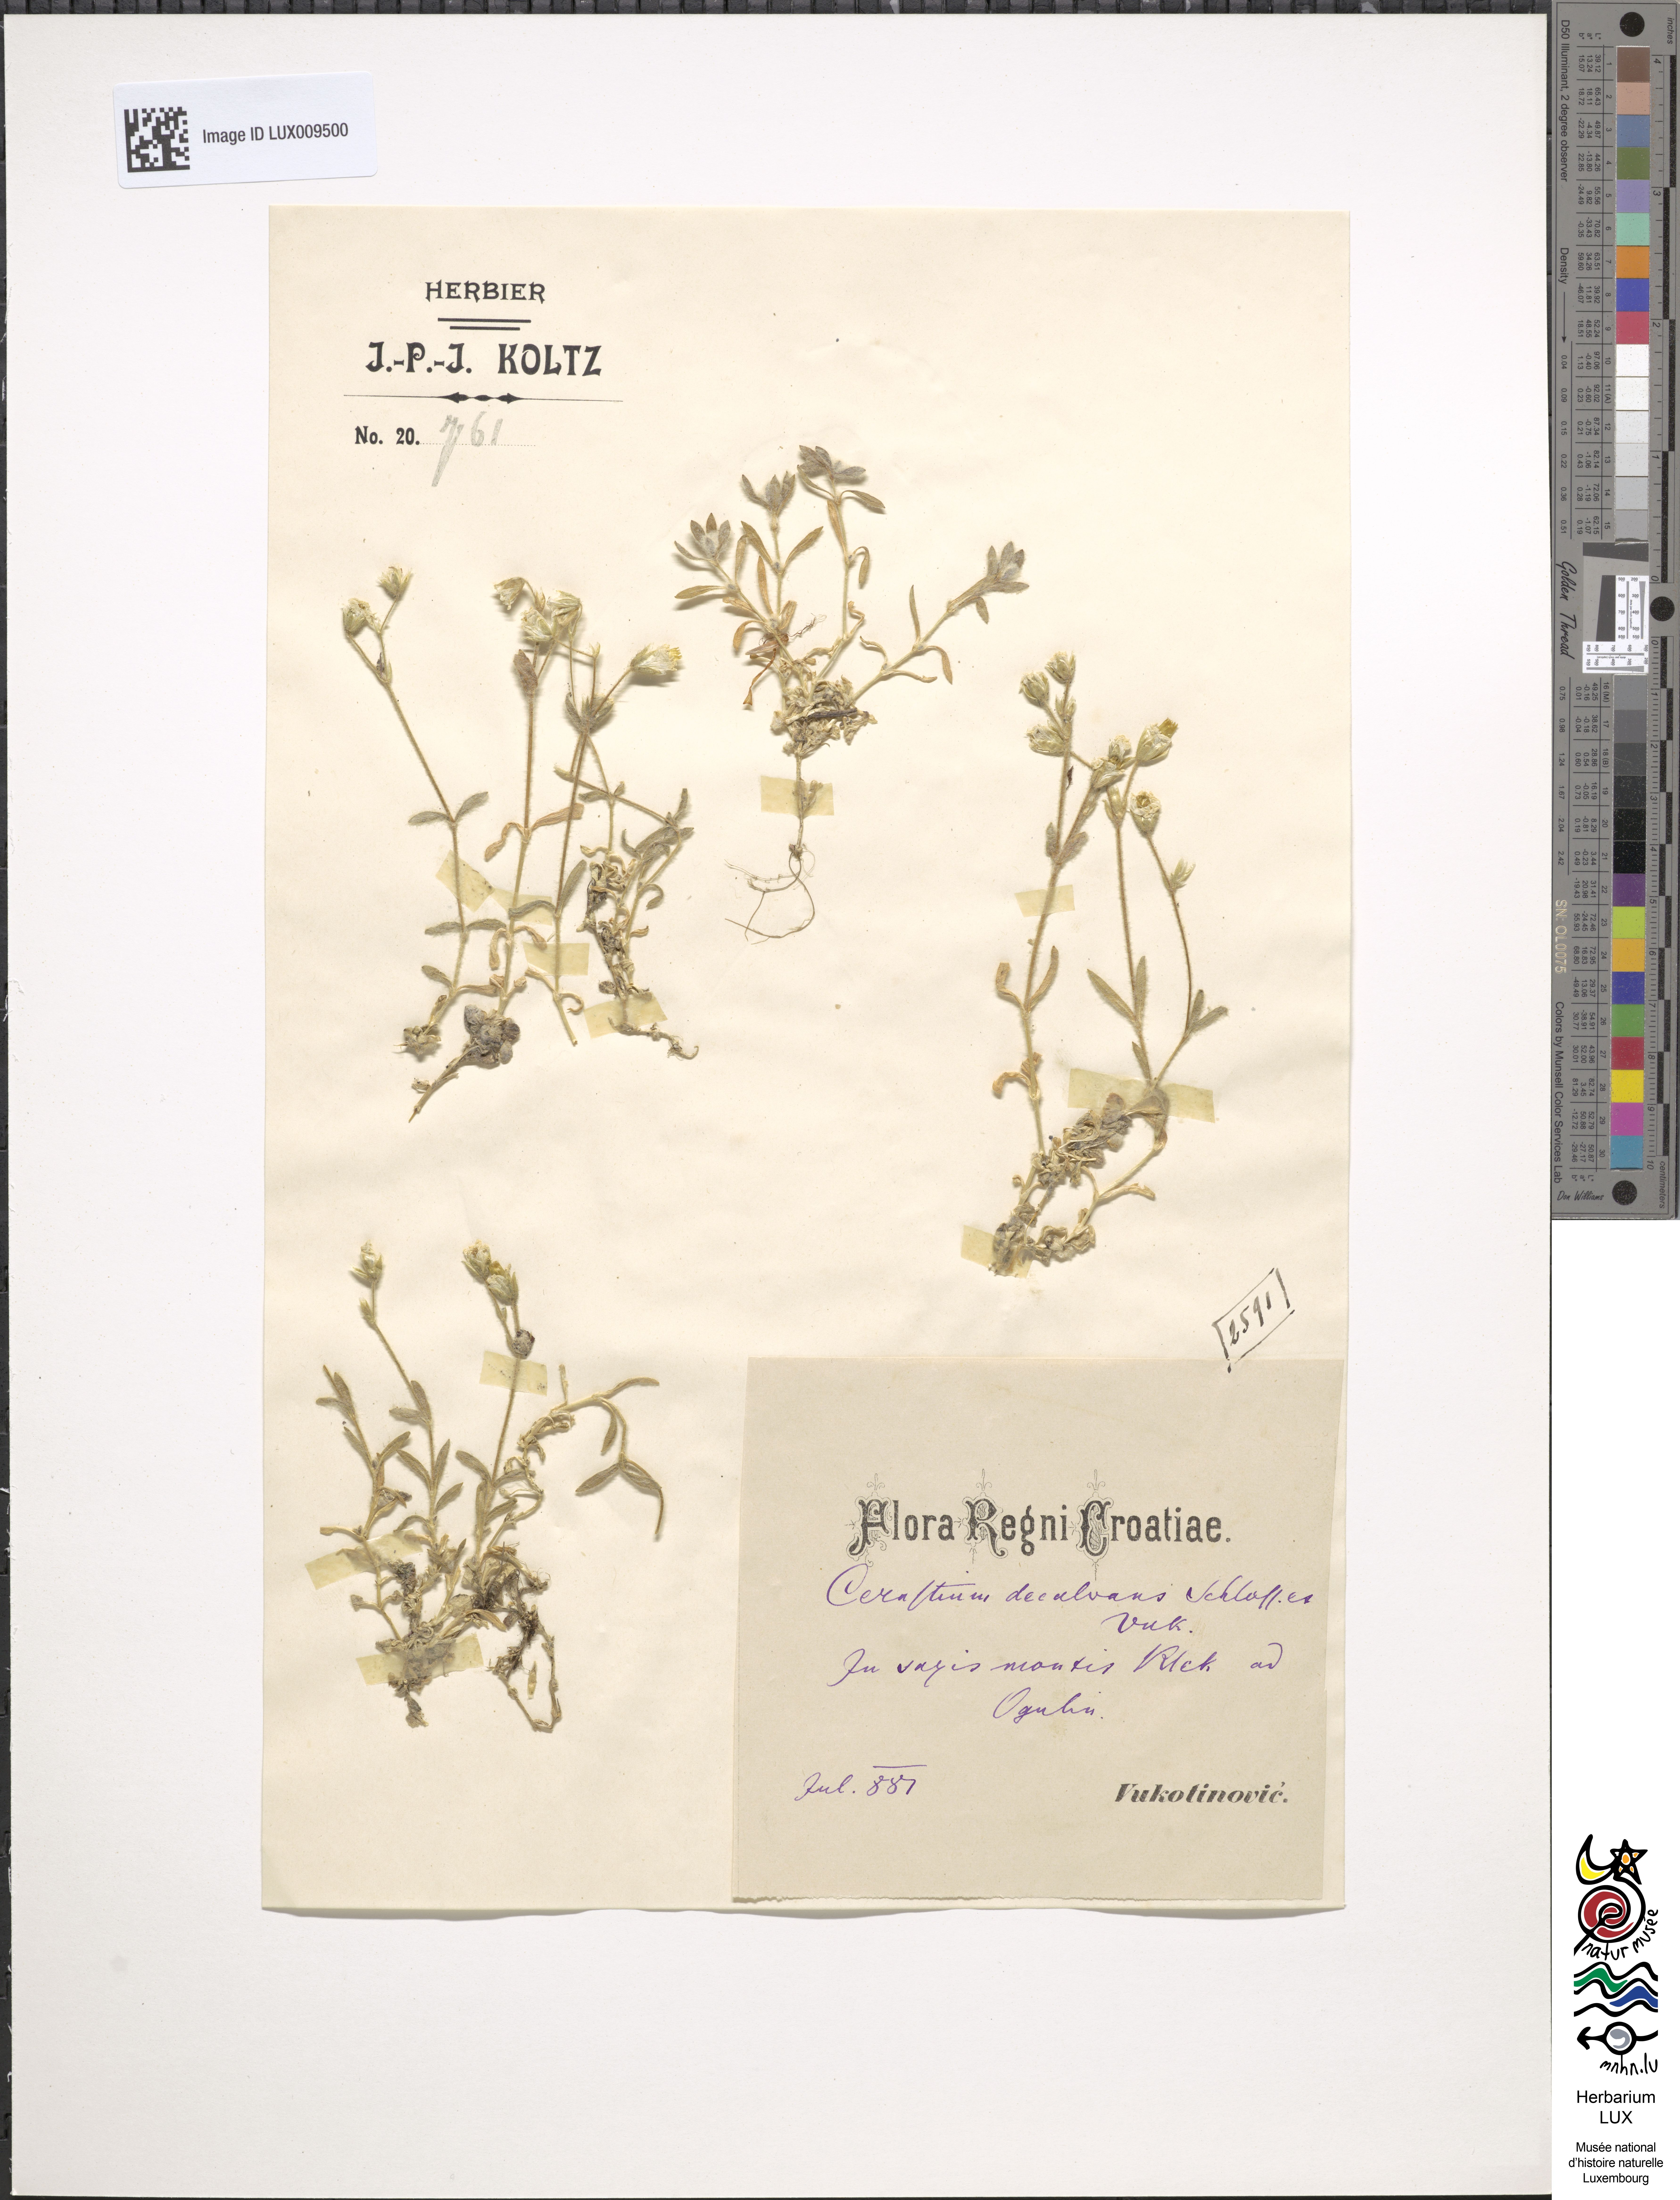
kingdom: Plantae
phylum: Tracheophyta
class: Magnoliopsida
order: Caryophyllales
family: Caryophyllaceae
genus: Cerastium
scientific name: Cerastium decalvans
